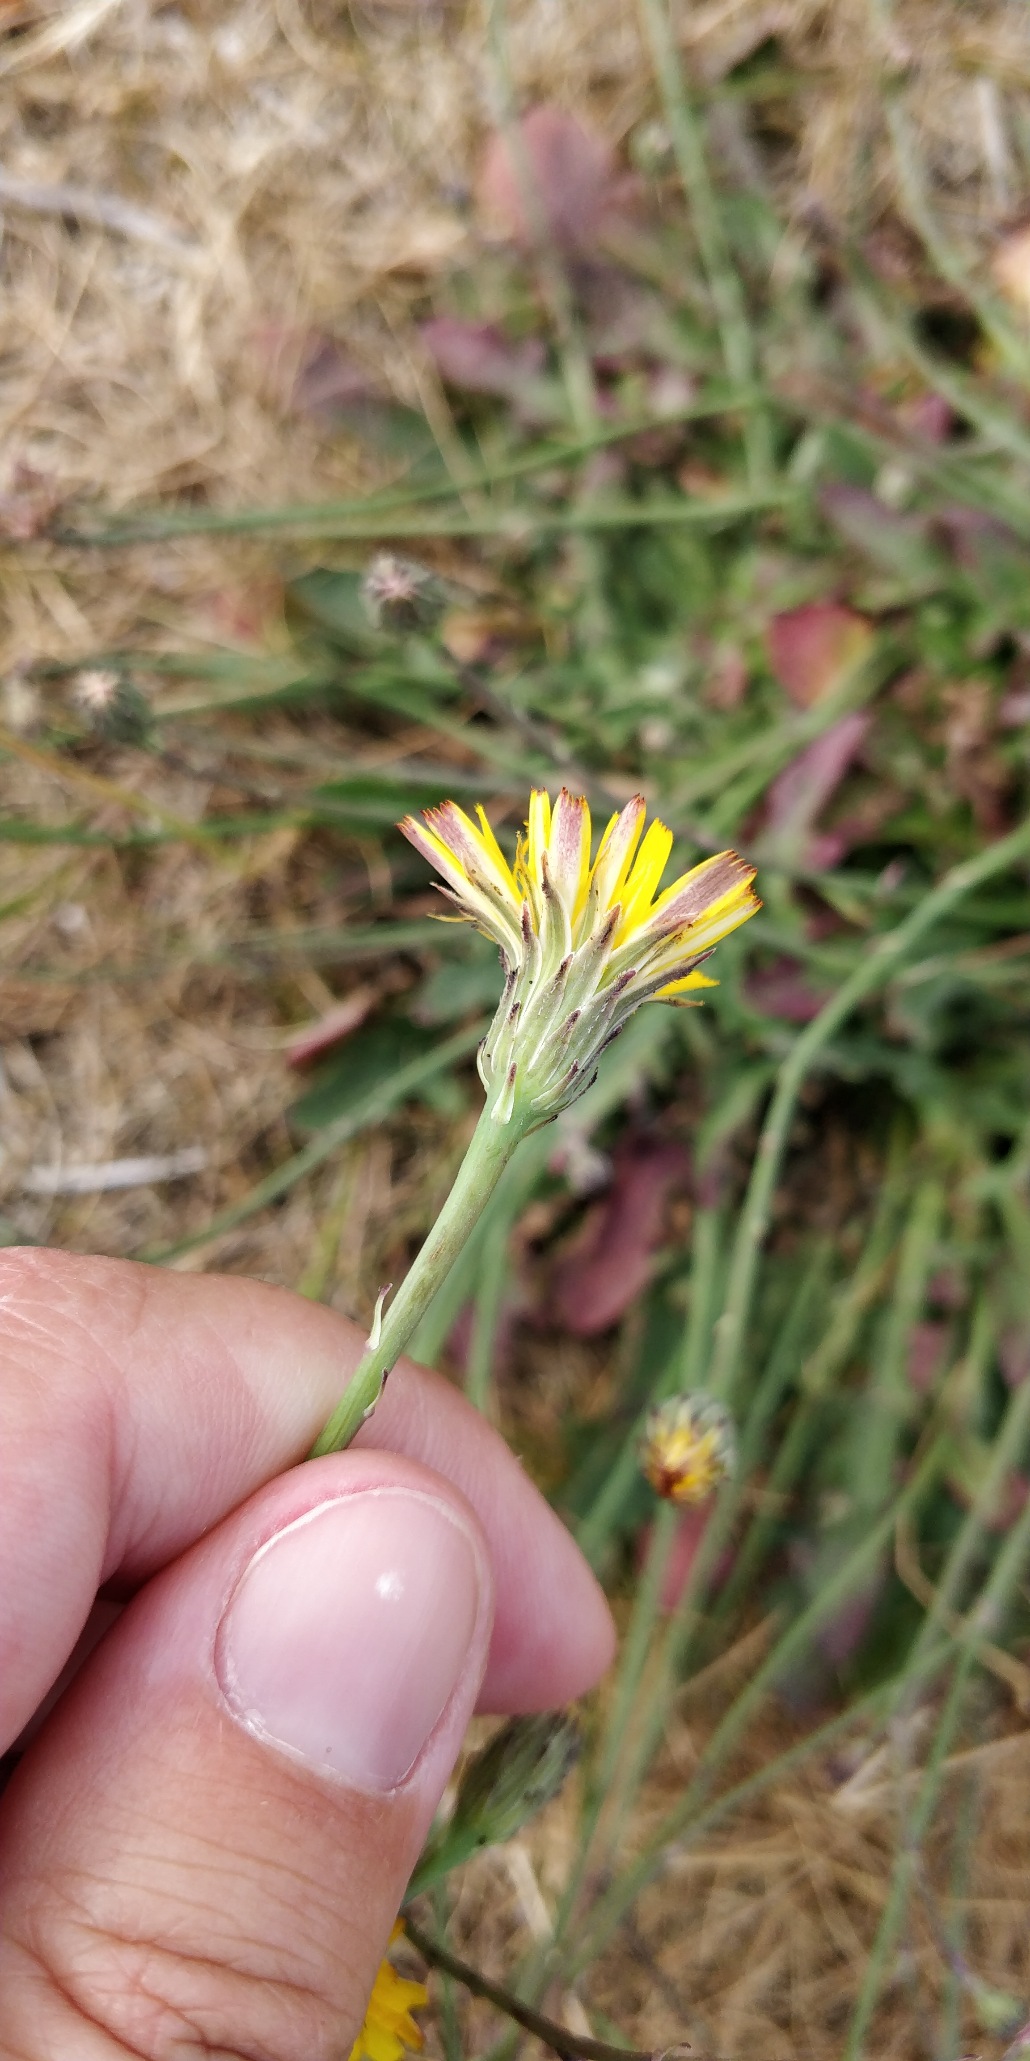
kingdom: Plantae
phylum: Tracheophyta
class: Magnoliopsida
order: Asterales
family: Asteraceae
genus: Hypochaeris
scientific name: Hypochaeris radicata
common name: Almindelig kongepen
